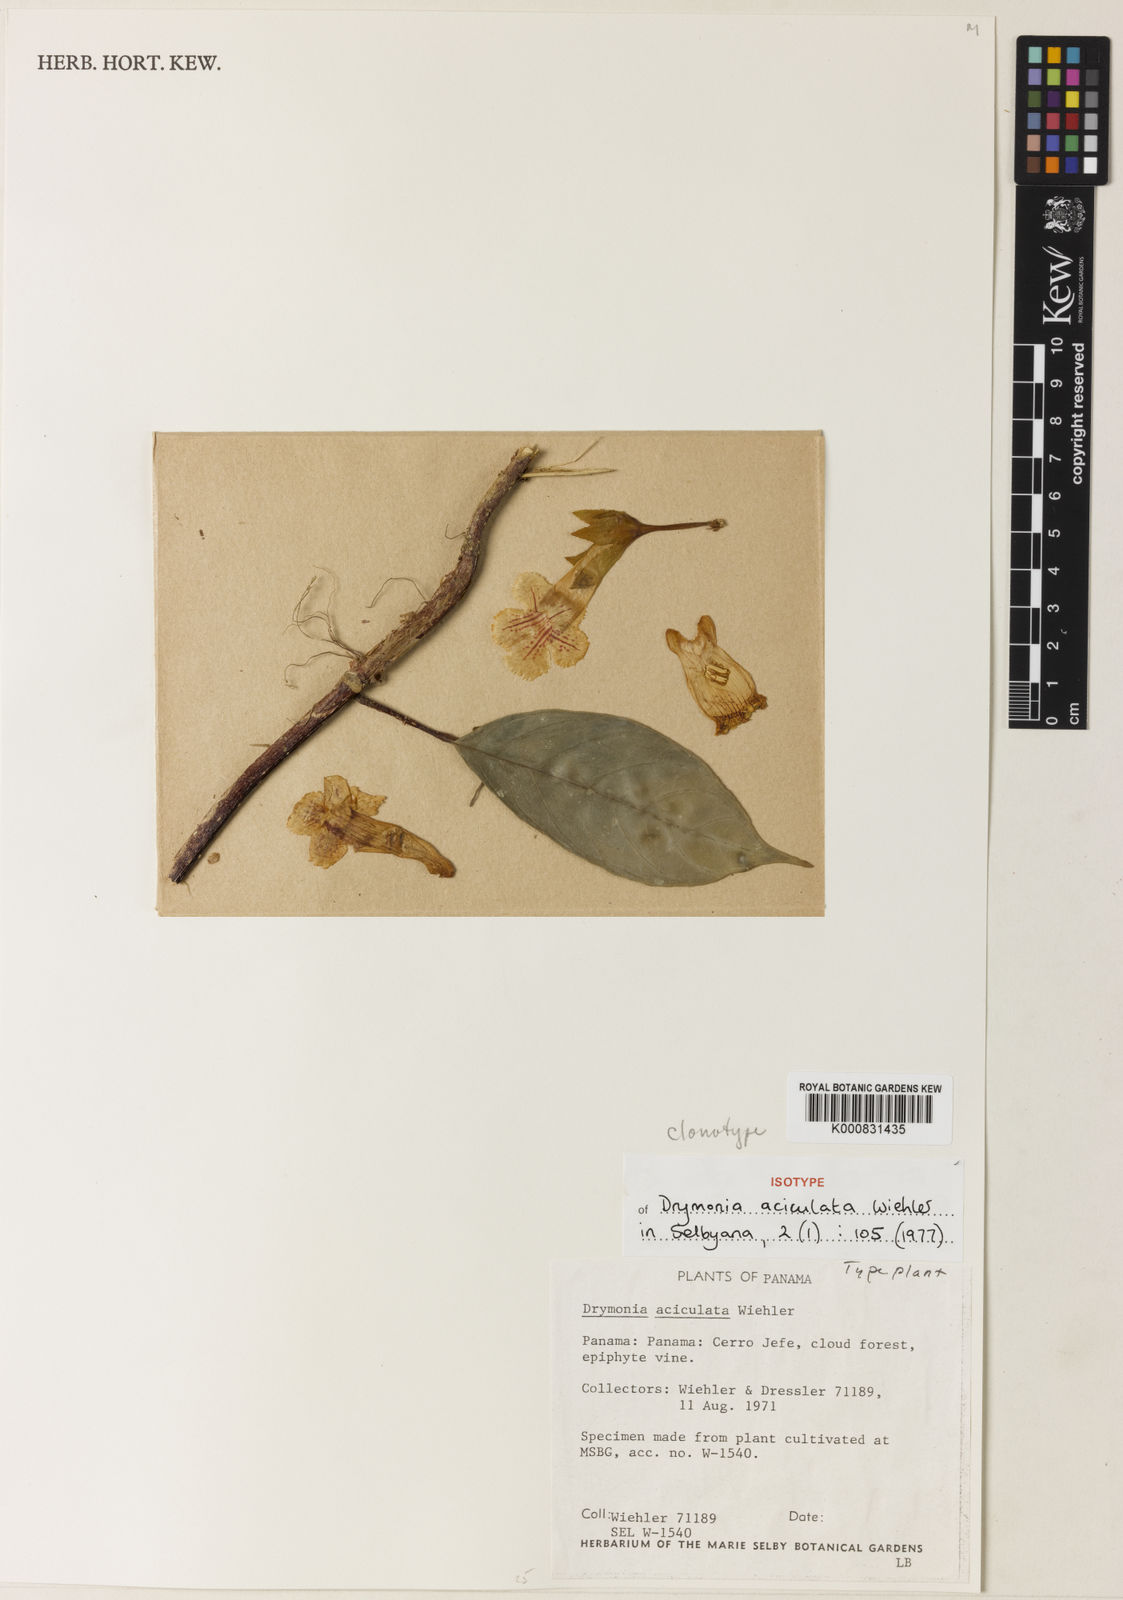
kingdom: Plantae
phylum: Tracheophyta
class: Magnoliopsida
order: Lamiales
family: Gesneriaceae
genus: Drymonia
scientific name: Drymonia aciculata
